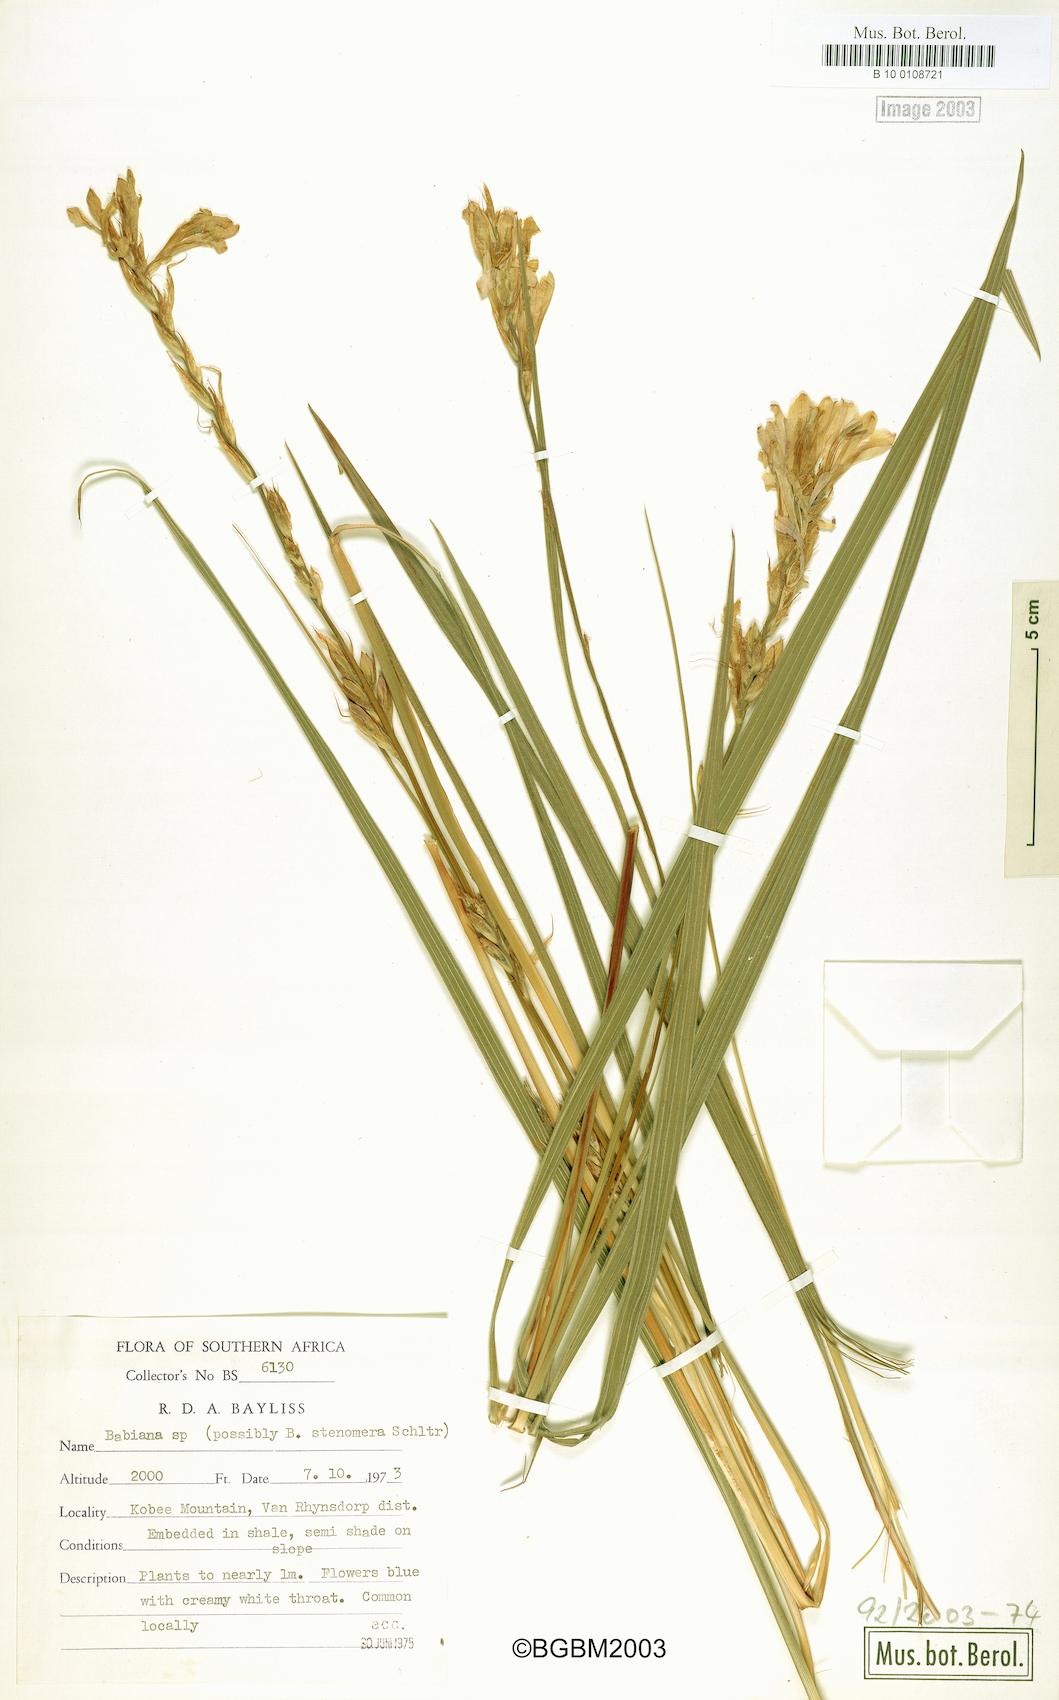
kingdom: Plantae
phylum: Tracheophyta
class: Liliopsida
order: Asparagales
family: Iridaceae
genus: Babiana
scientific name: Babiana
